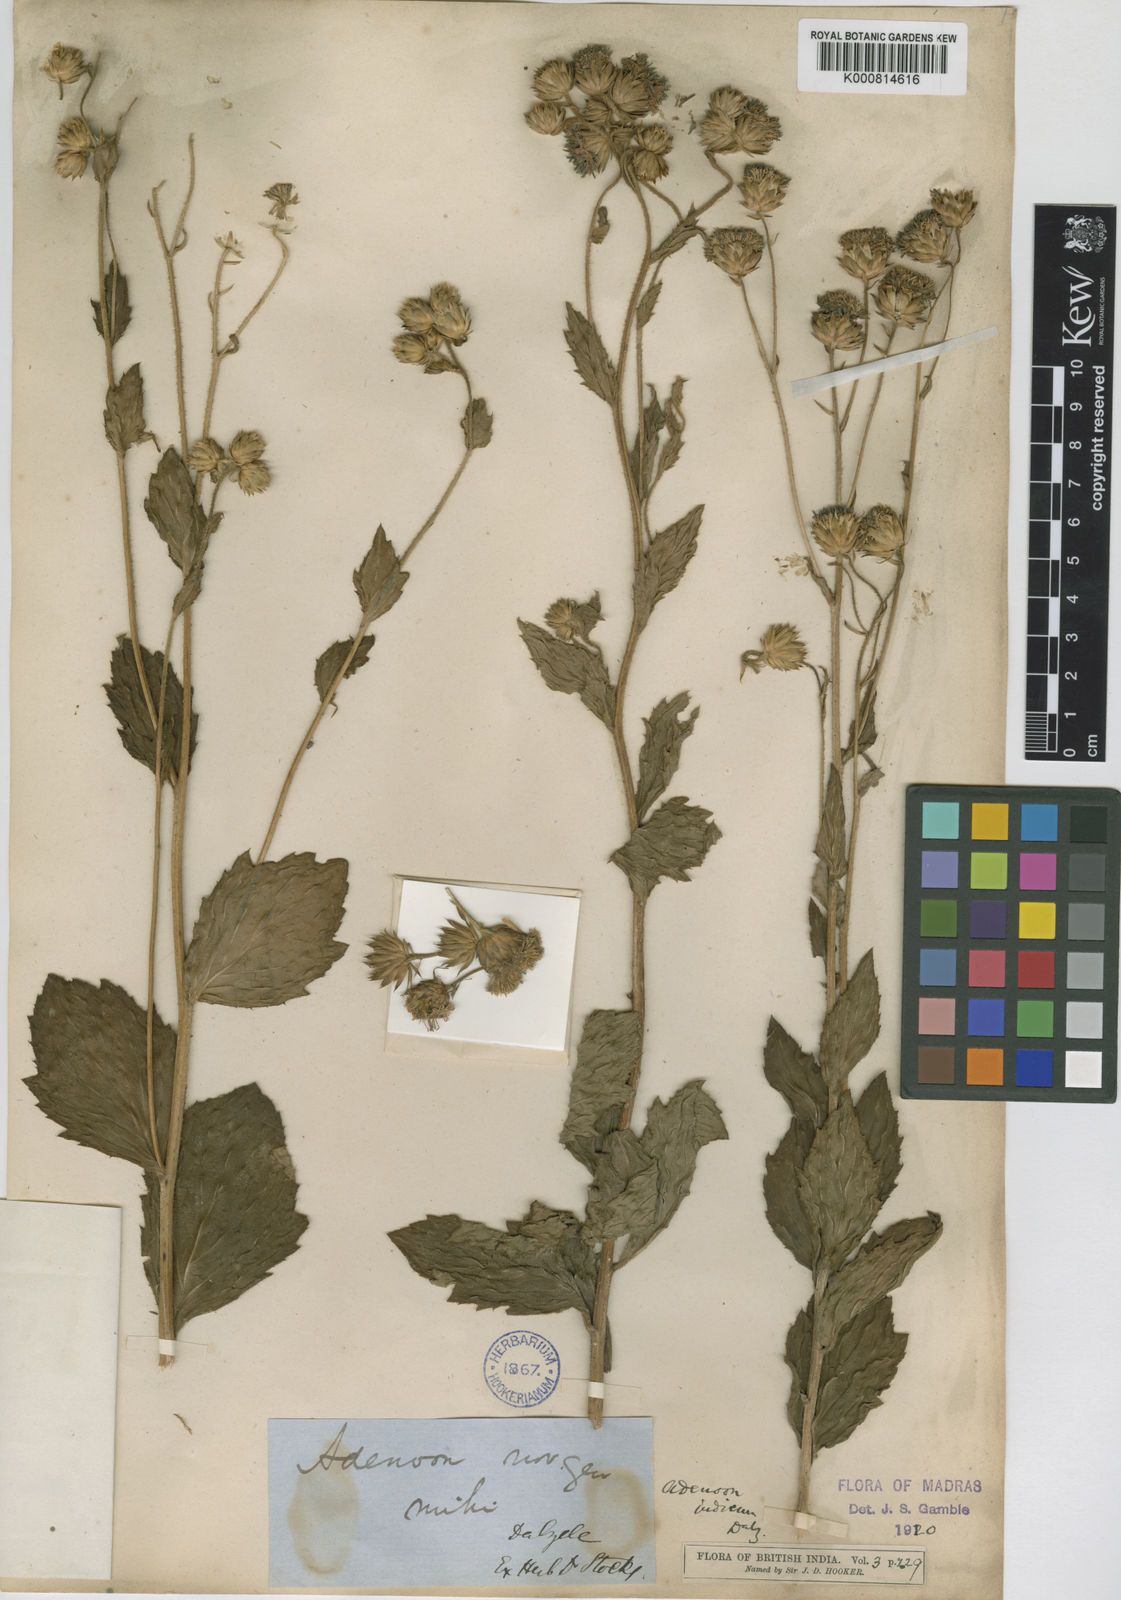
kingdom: Plantae
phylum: Tracheophyta
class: Magnoliopsida
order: Asterales
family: Asteraceae
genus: Adenoon
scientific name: Adenoon indicum
